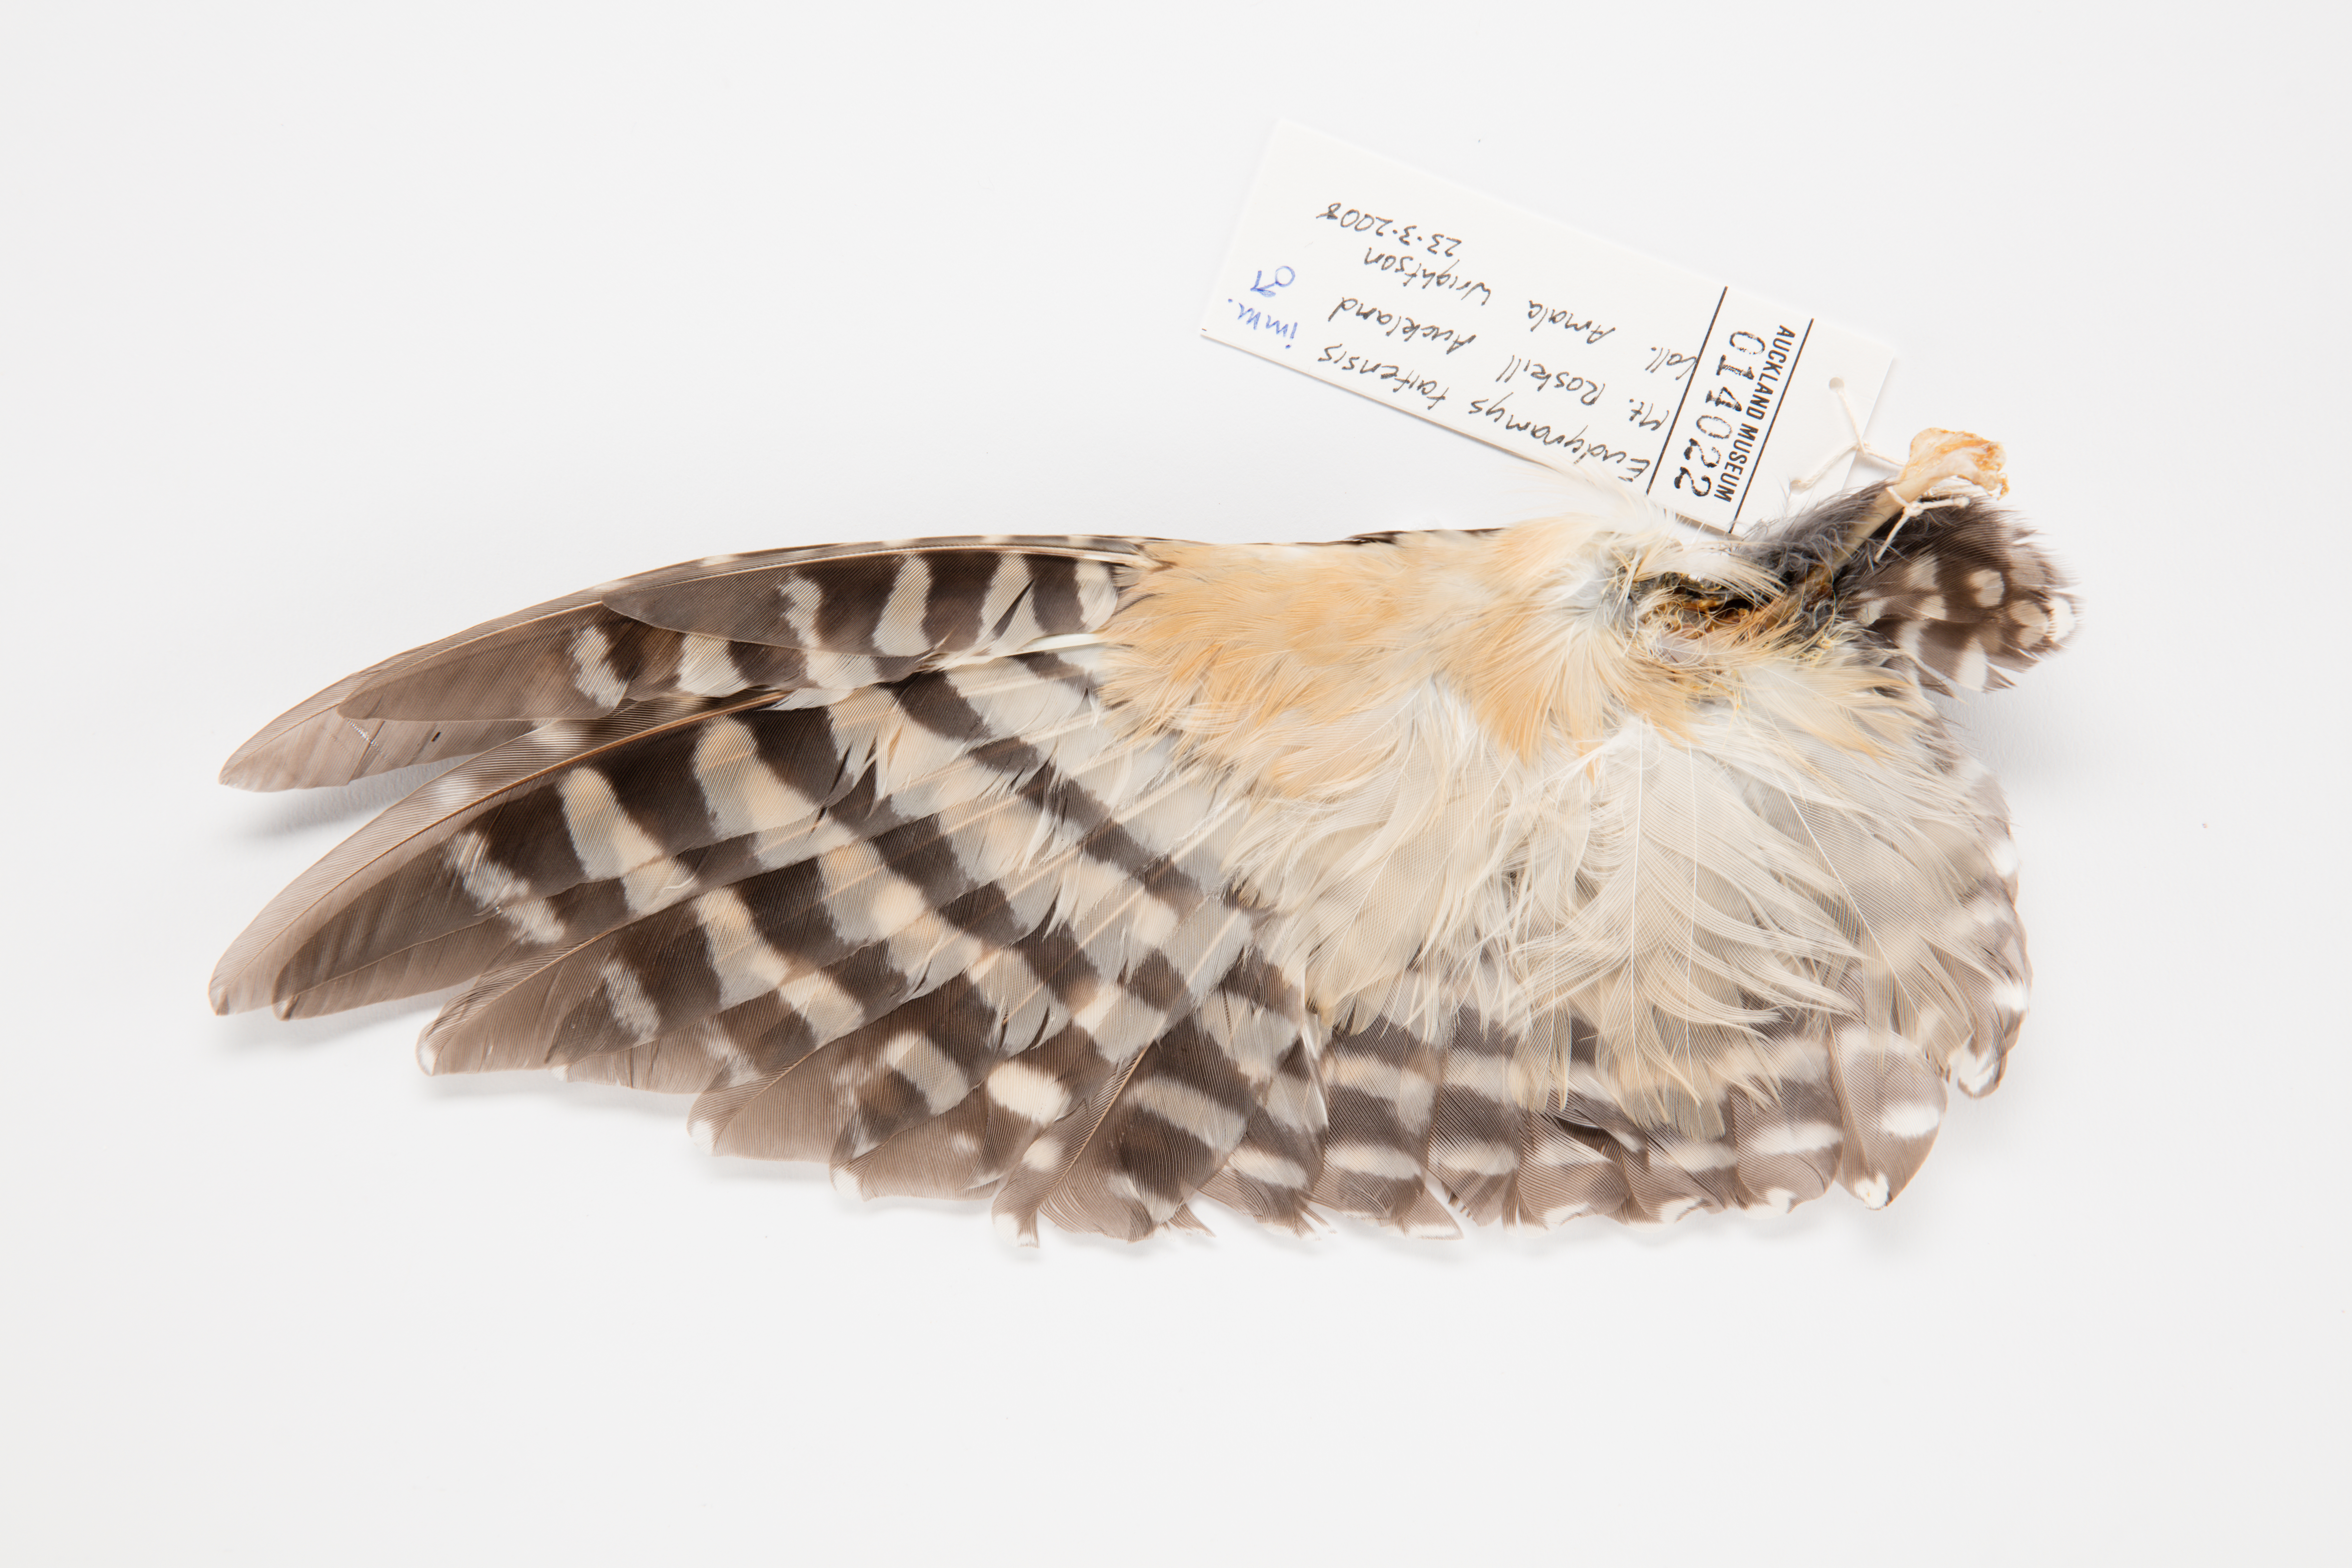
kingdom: Animalia
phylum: Chordata
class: Aves
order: Cuculiformes
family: Cuculidae
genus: Urodynamis
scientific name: Urodynamis taitensis
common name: Long-tailed koel
